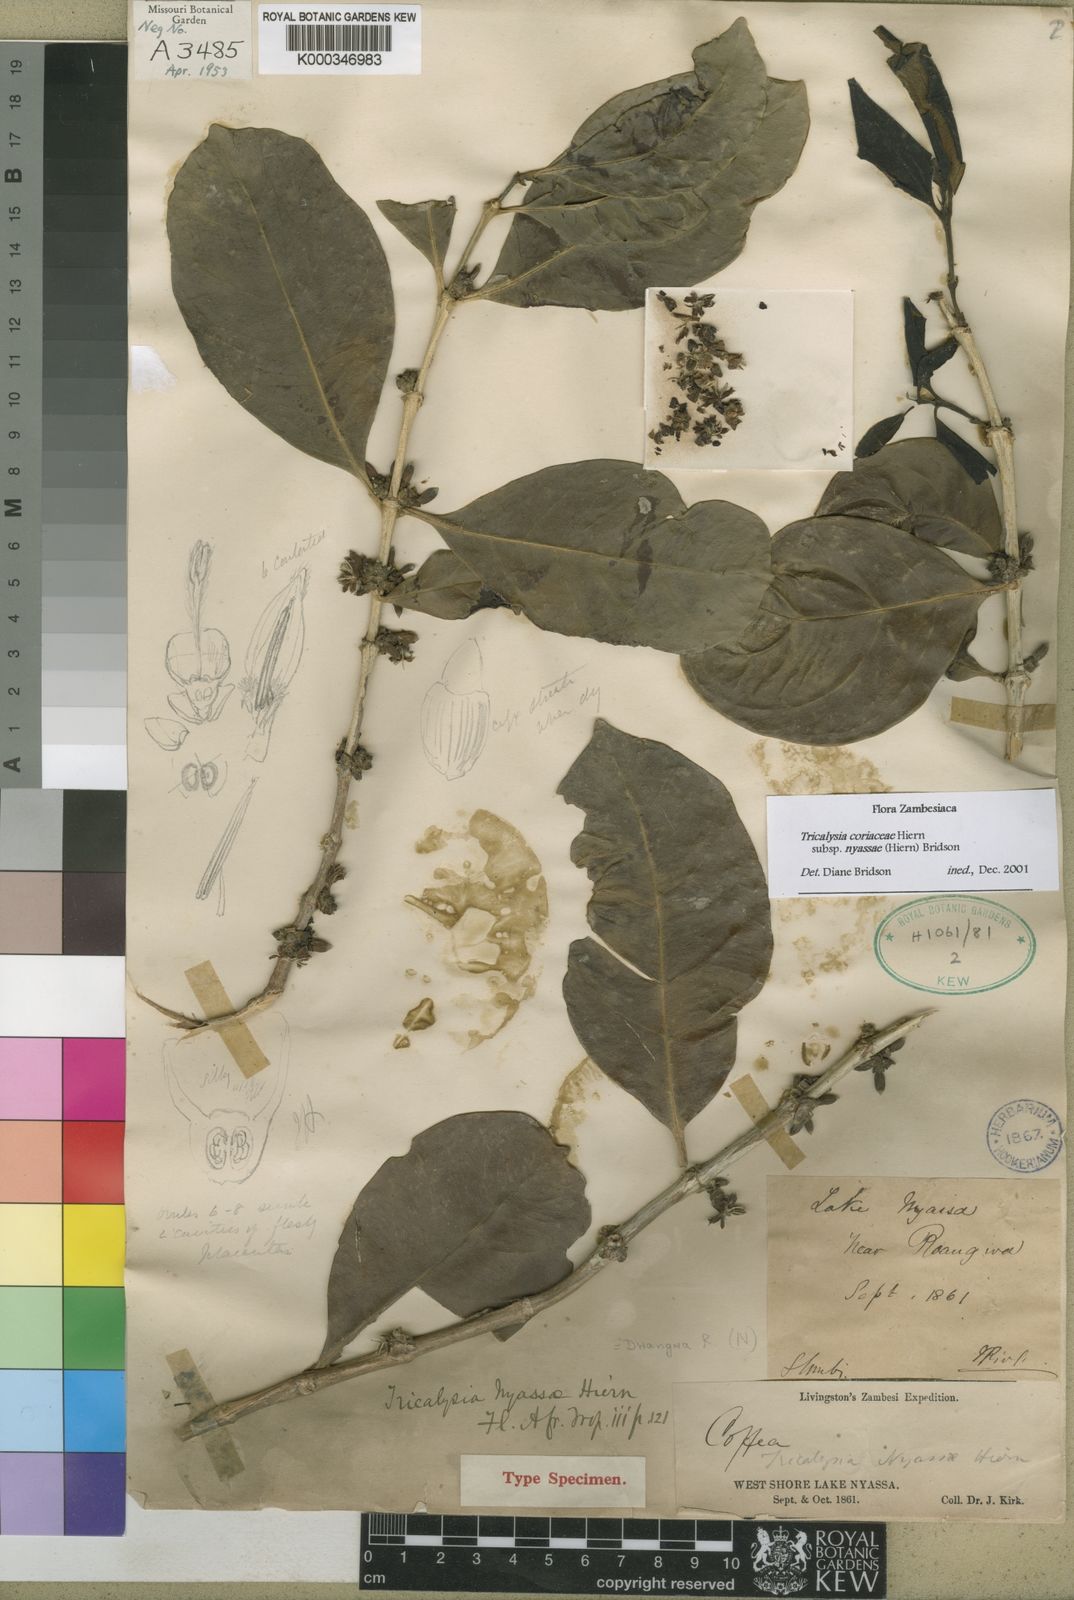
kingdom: Plantae
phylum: Tracheophyta
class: Magnoliopsida
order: Gentianales
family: Rubiaceae
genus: Tricalysia
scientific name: Tricalysia coriacea
